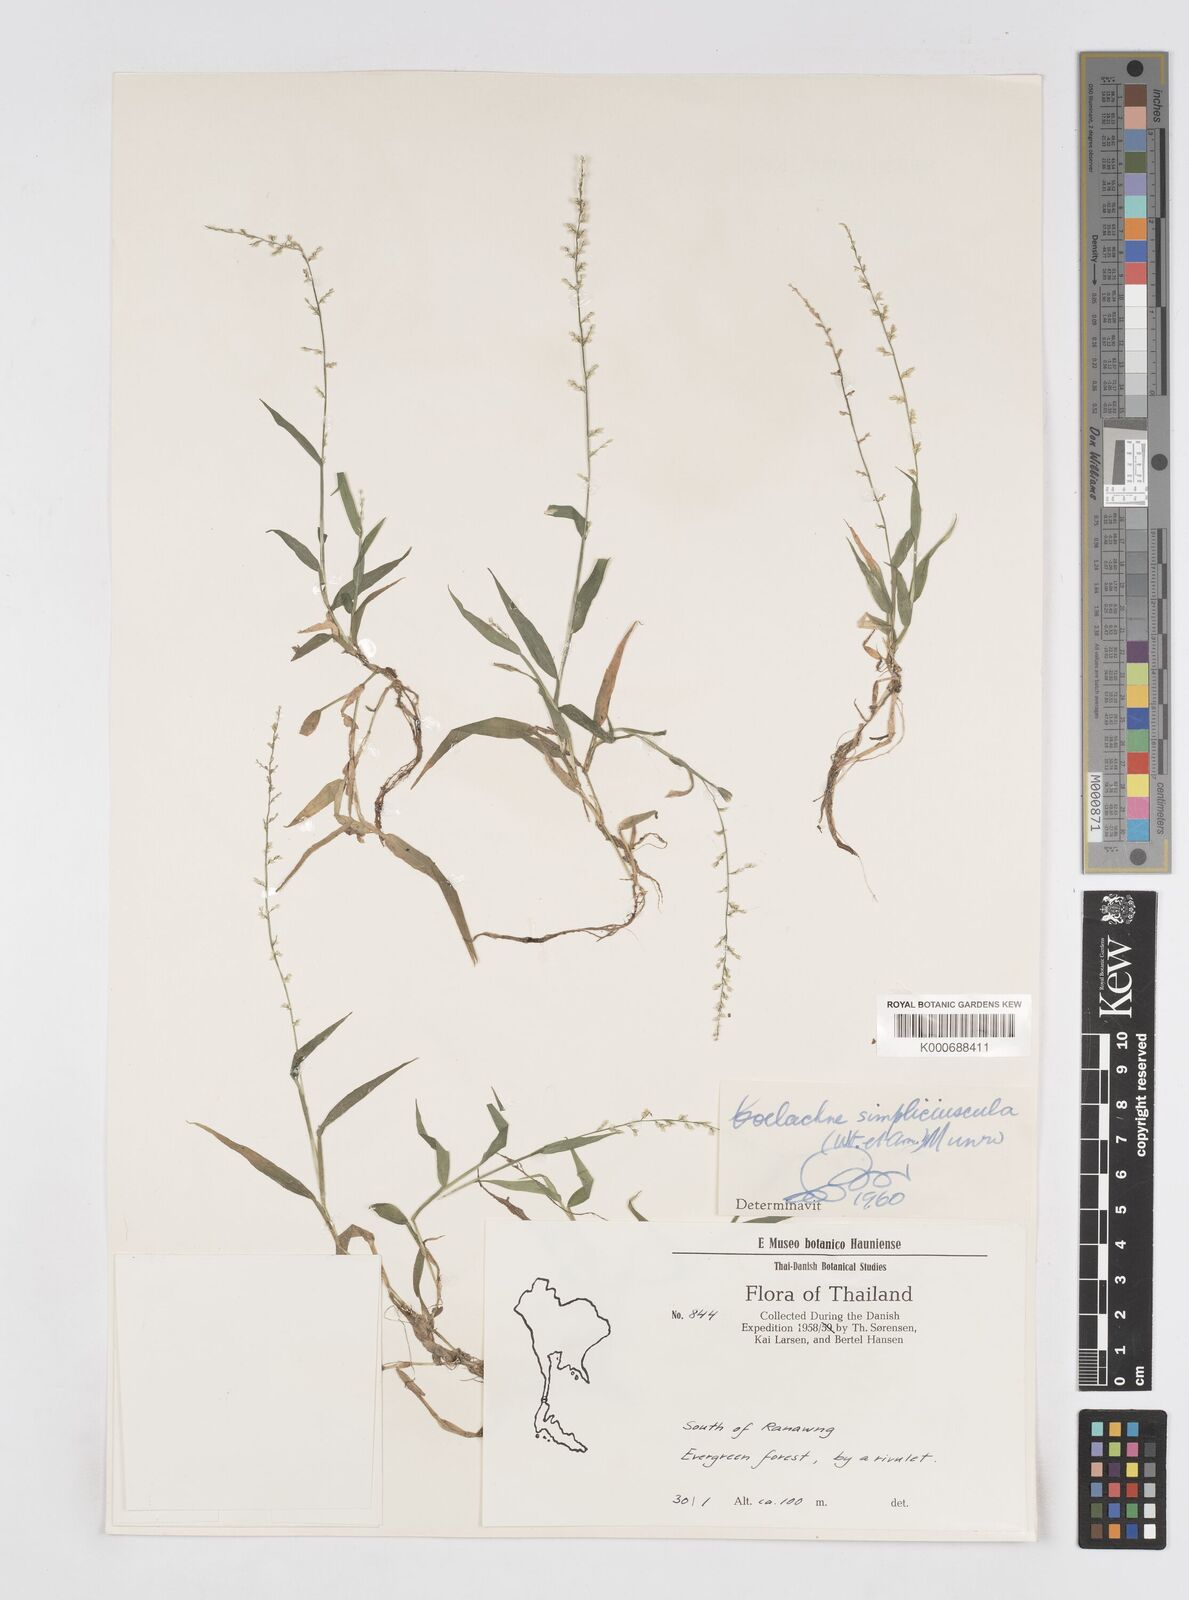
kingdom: Plantae
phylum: Tracheophyta
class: Liliopsida
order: Poales
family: Poaceae
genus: Coelachne
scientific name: Coelachne simpliciuscula
